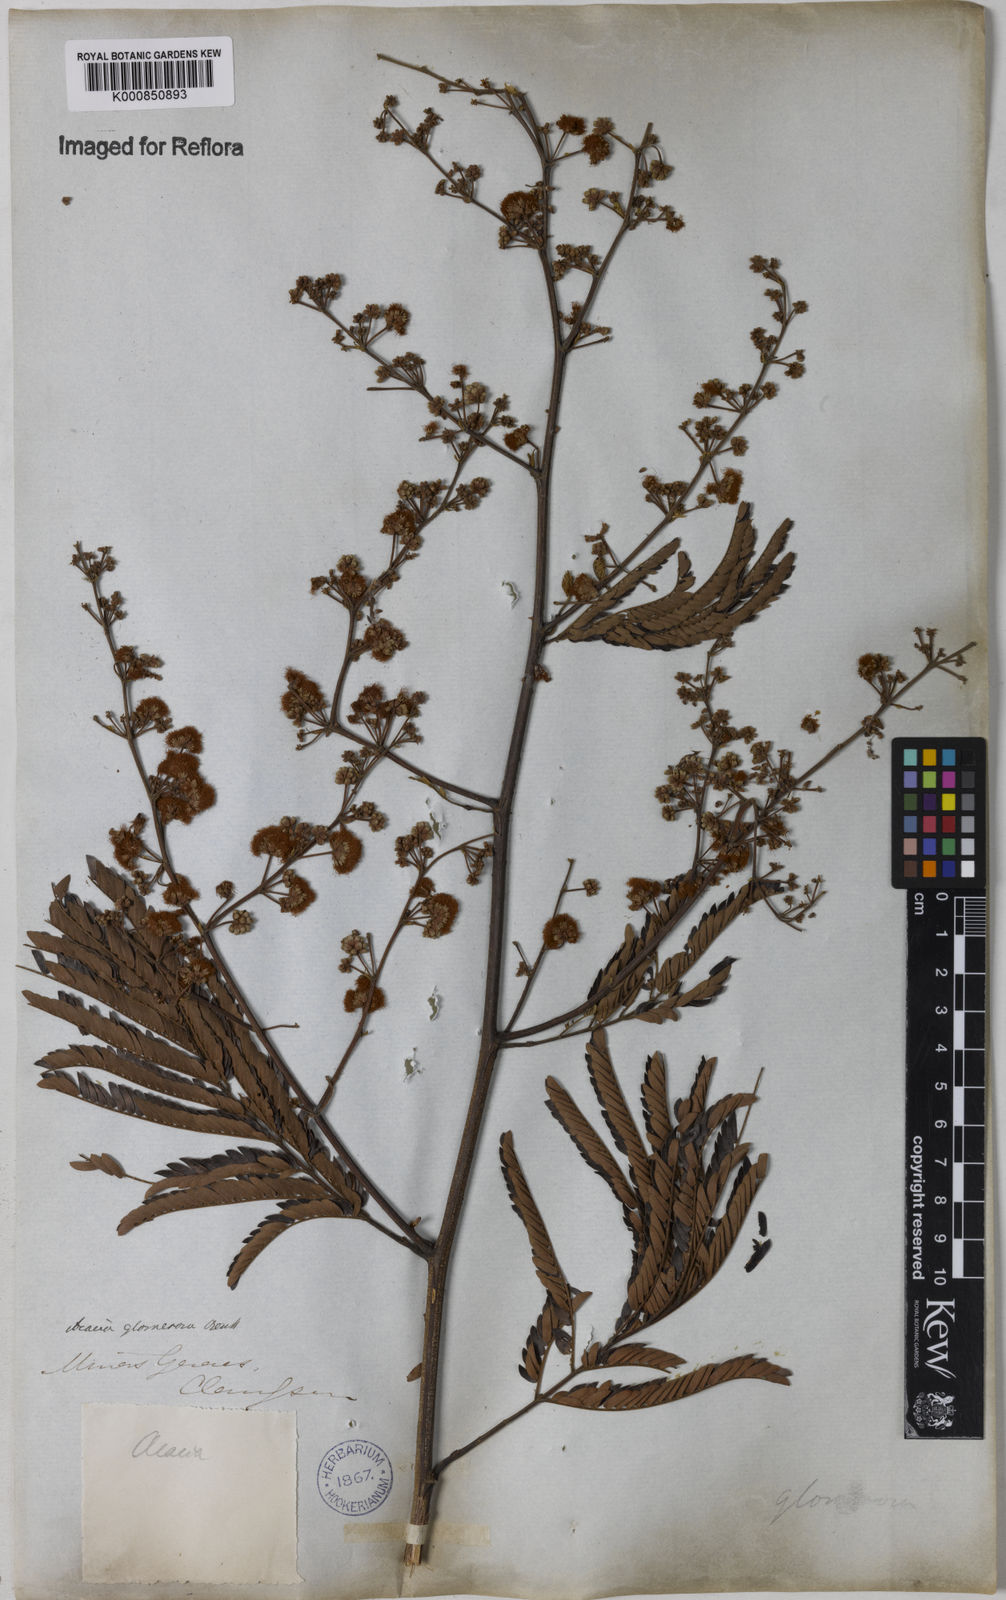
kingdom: Plantae
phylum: Tracheophyta
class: Magnoliopsida
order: Fabales
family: Fabaceae
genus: Senegalia
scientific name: Senegalia polyphylla
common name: White-tamarind
